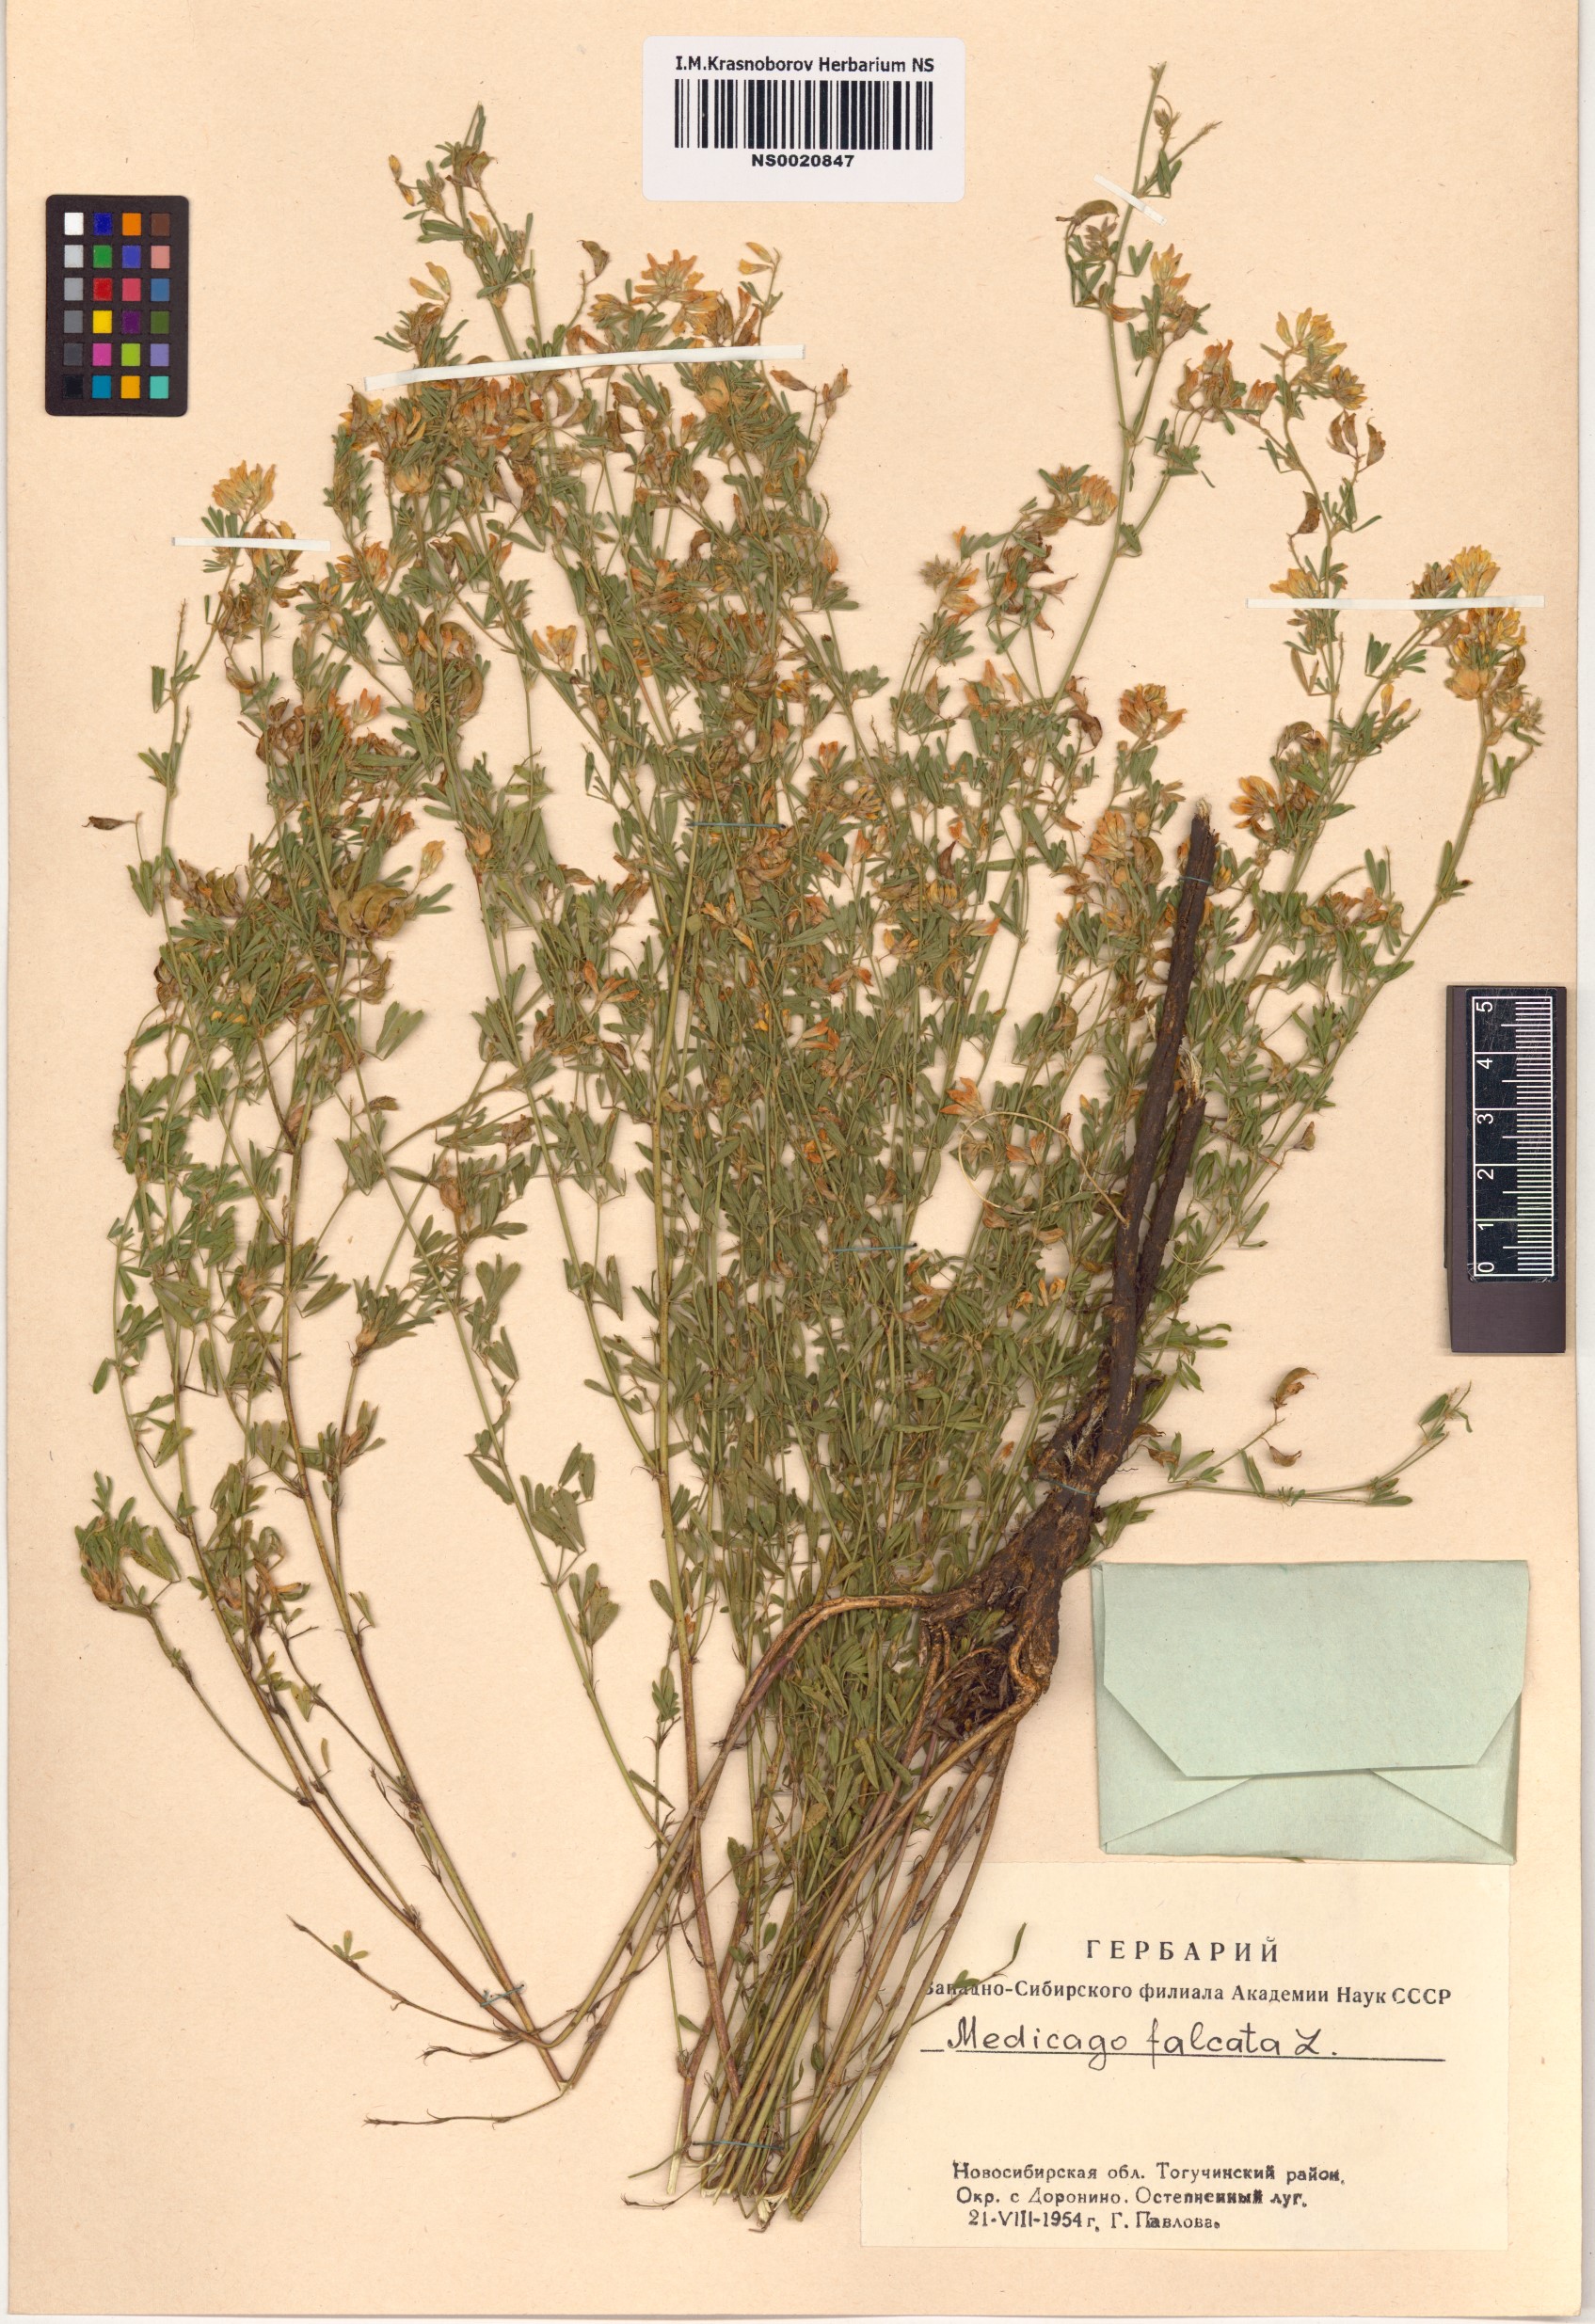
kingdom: Plantae
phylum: Tracheophyta
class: Magnoliopsida
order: Fabales
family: Fabaceae
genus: Medicago
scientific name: Medicago falcata
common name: Sickle medick
